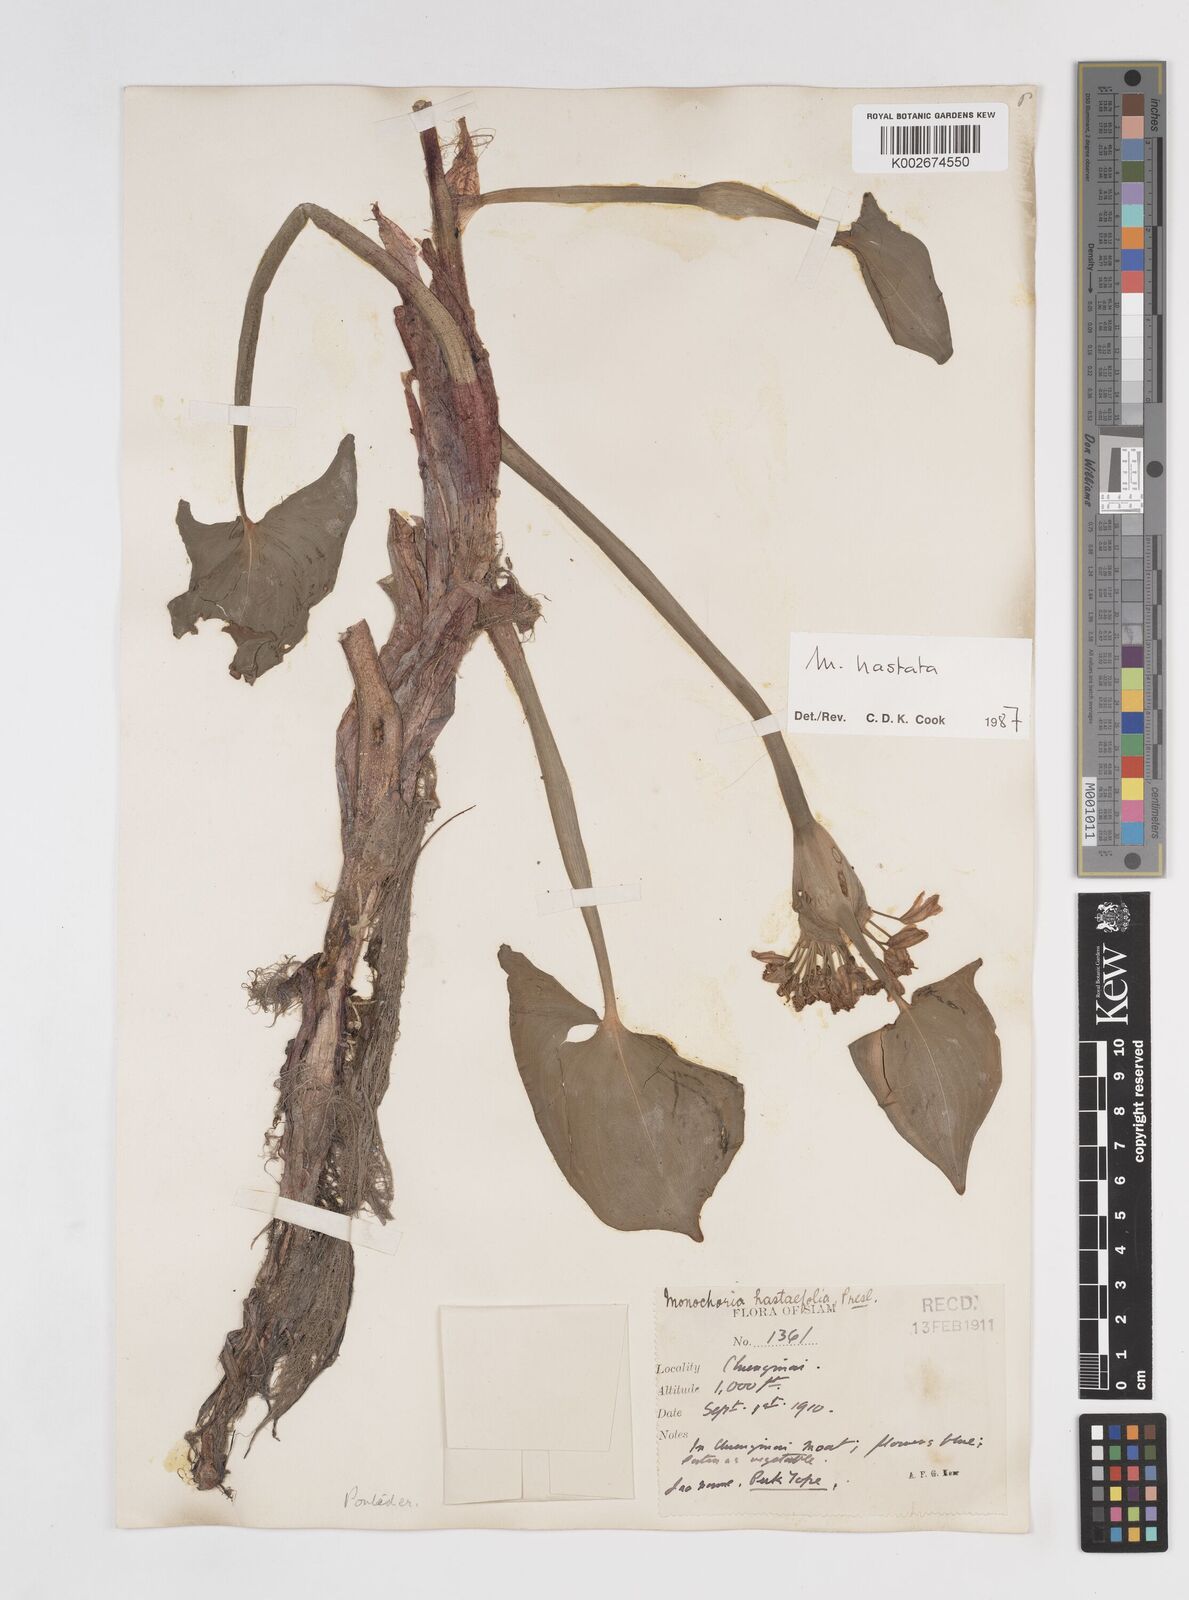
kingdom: Plantae
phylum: Tracheophyta
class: Liliopsida
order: Commelinales
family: Pontederiaceae
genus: Pontederia
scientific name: Pontederia hastata
